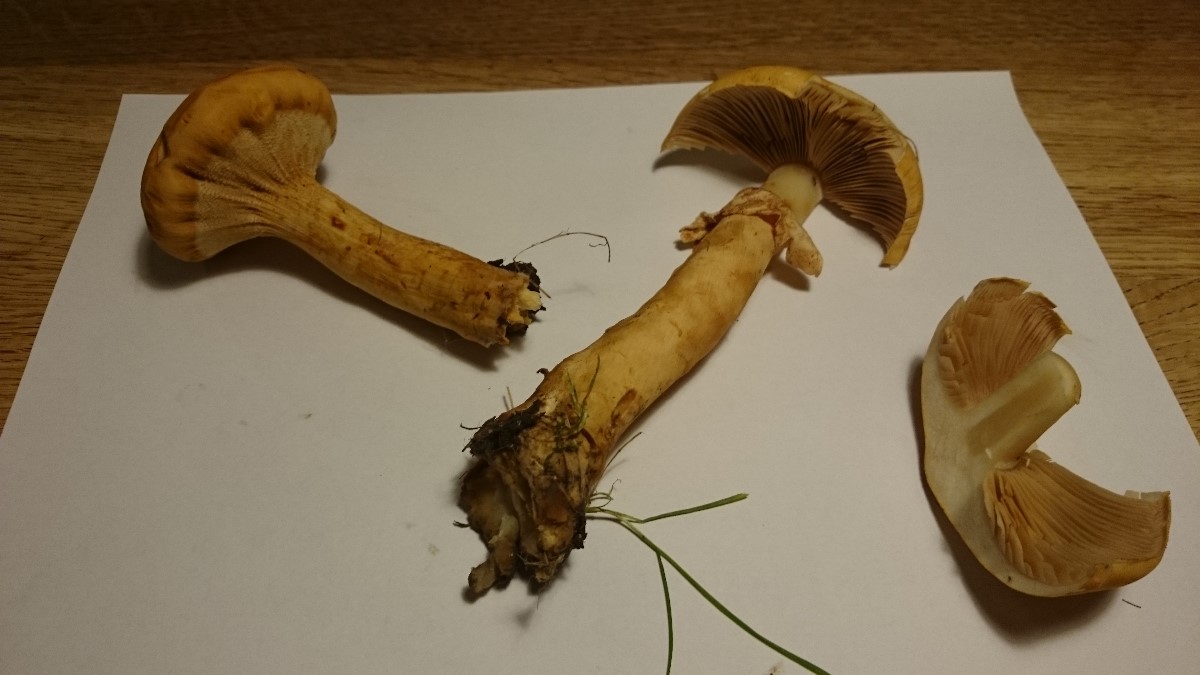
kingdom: Fungi
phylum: Basidiomycota
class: Agaricomycetes
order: Agaricales
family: Tricholomataceae
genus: Phaeolepiota
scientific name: Phaeolepiota aurea
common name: gyldenhat
